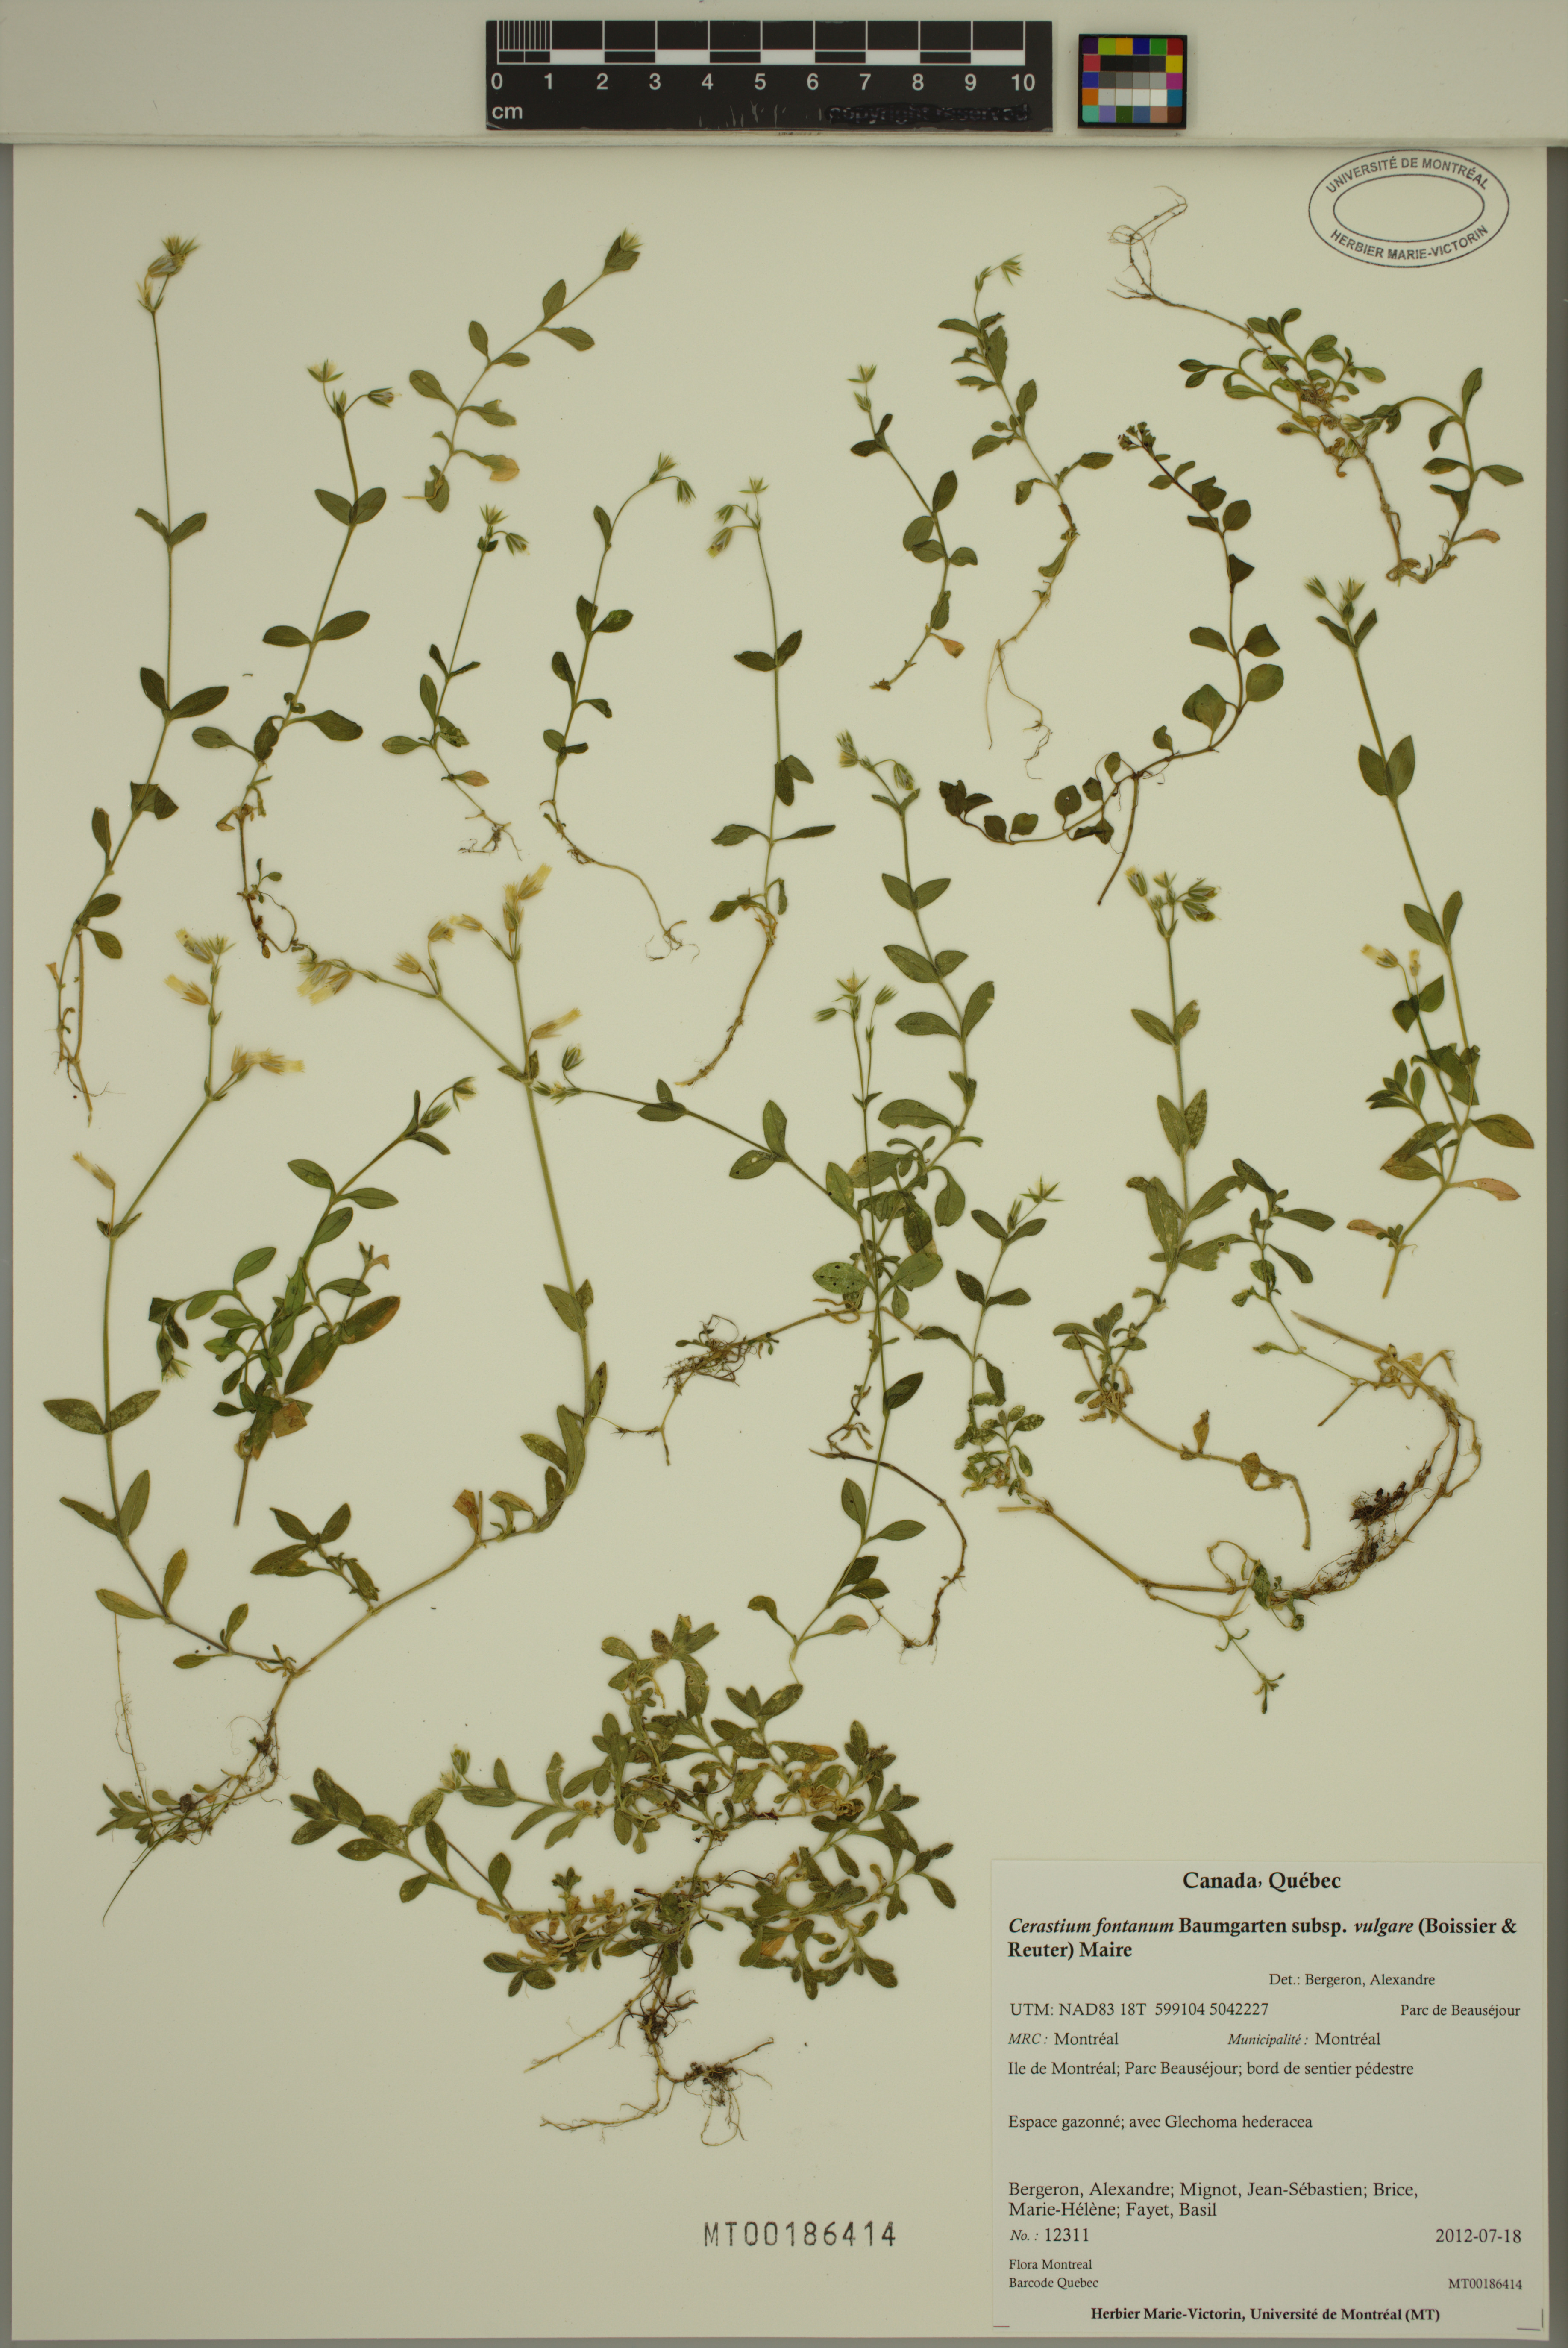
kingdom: Plantae
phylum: Tracheophyta
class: Magnoliopsida
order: Caryophyllales
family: Caryophyllaceae
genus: Cerastium
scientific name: Cerastium holosteoides
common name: Big chickweed
